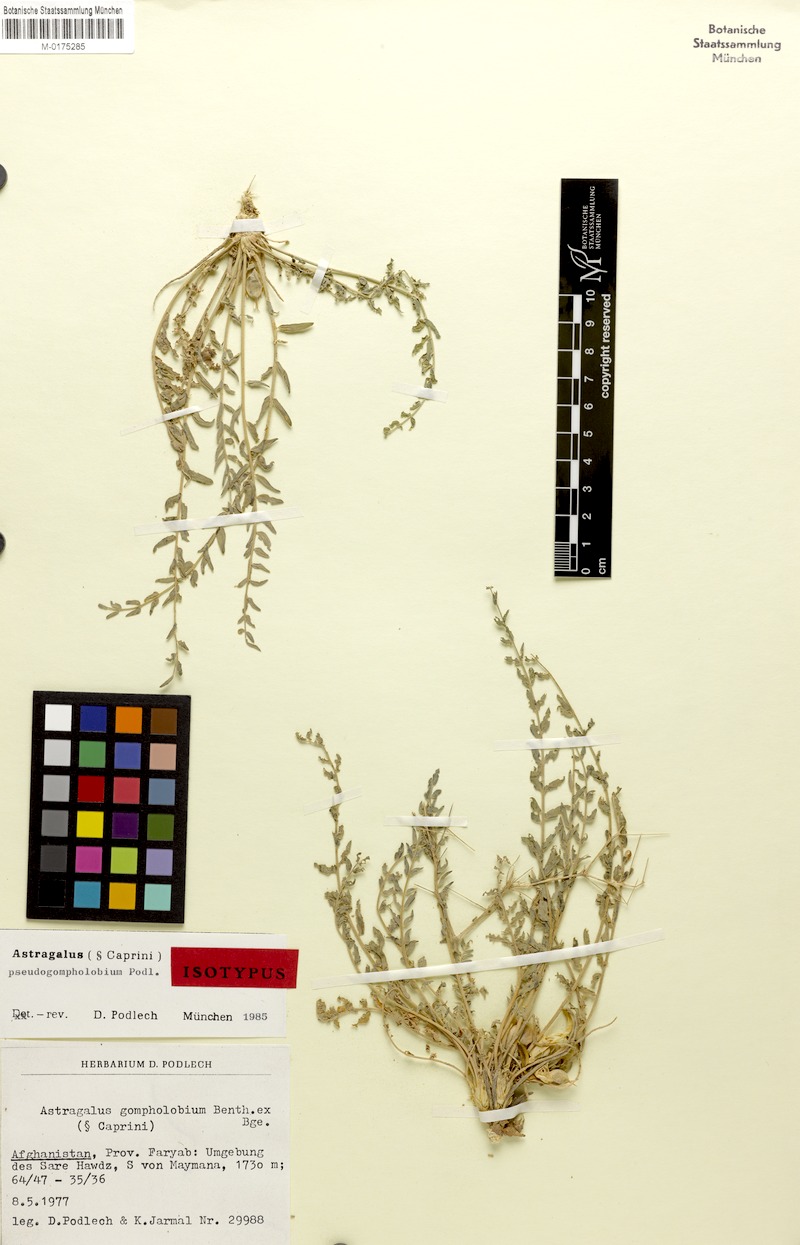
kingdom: Plantae
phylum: Tracheophyta
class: Magnoliopsida
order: Fabales
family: Fabaceae
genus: Astragalus
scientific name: Astragalus pseudogompholobium
